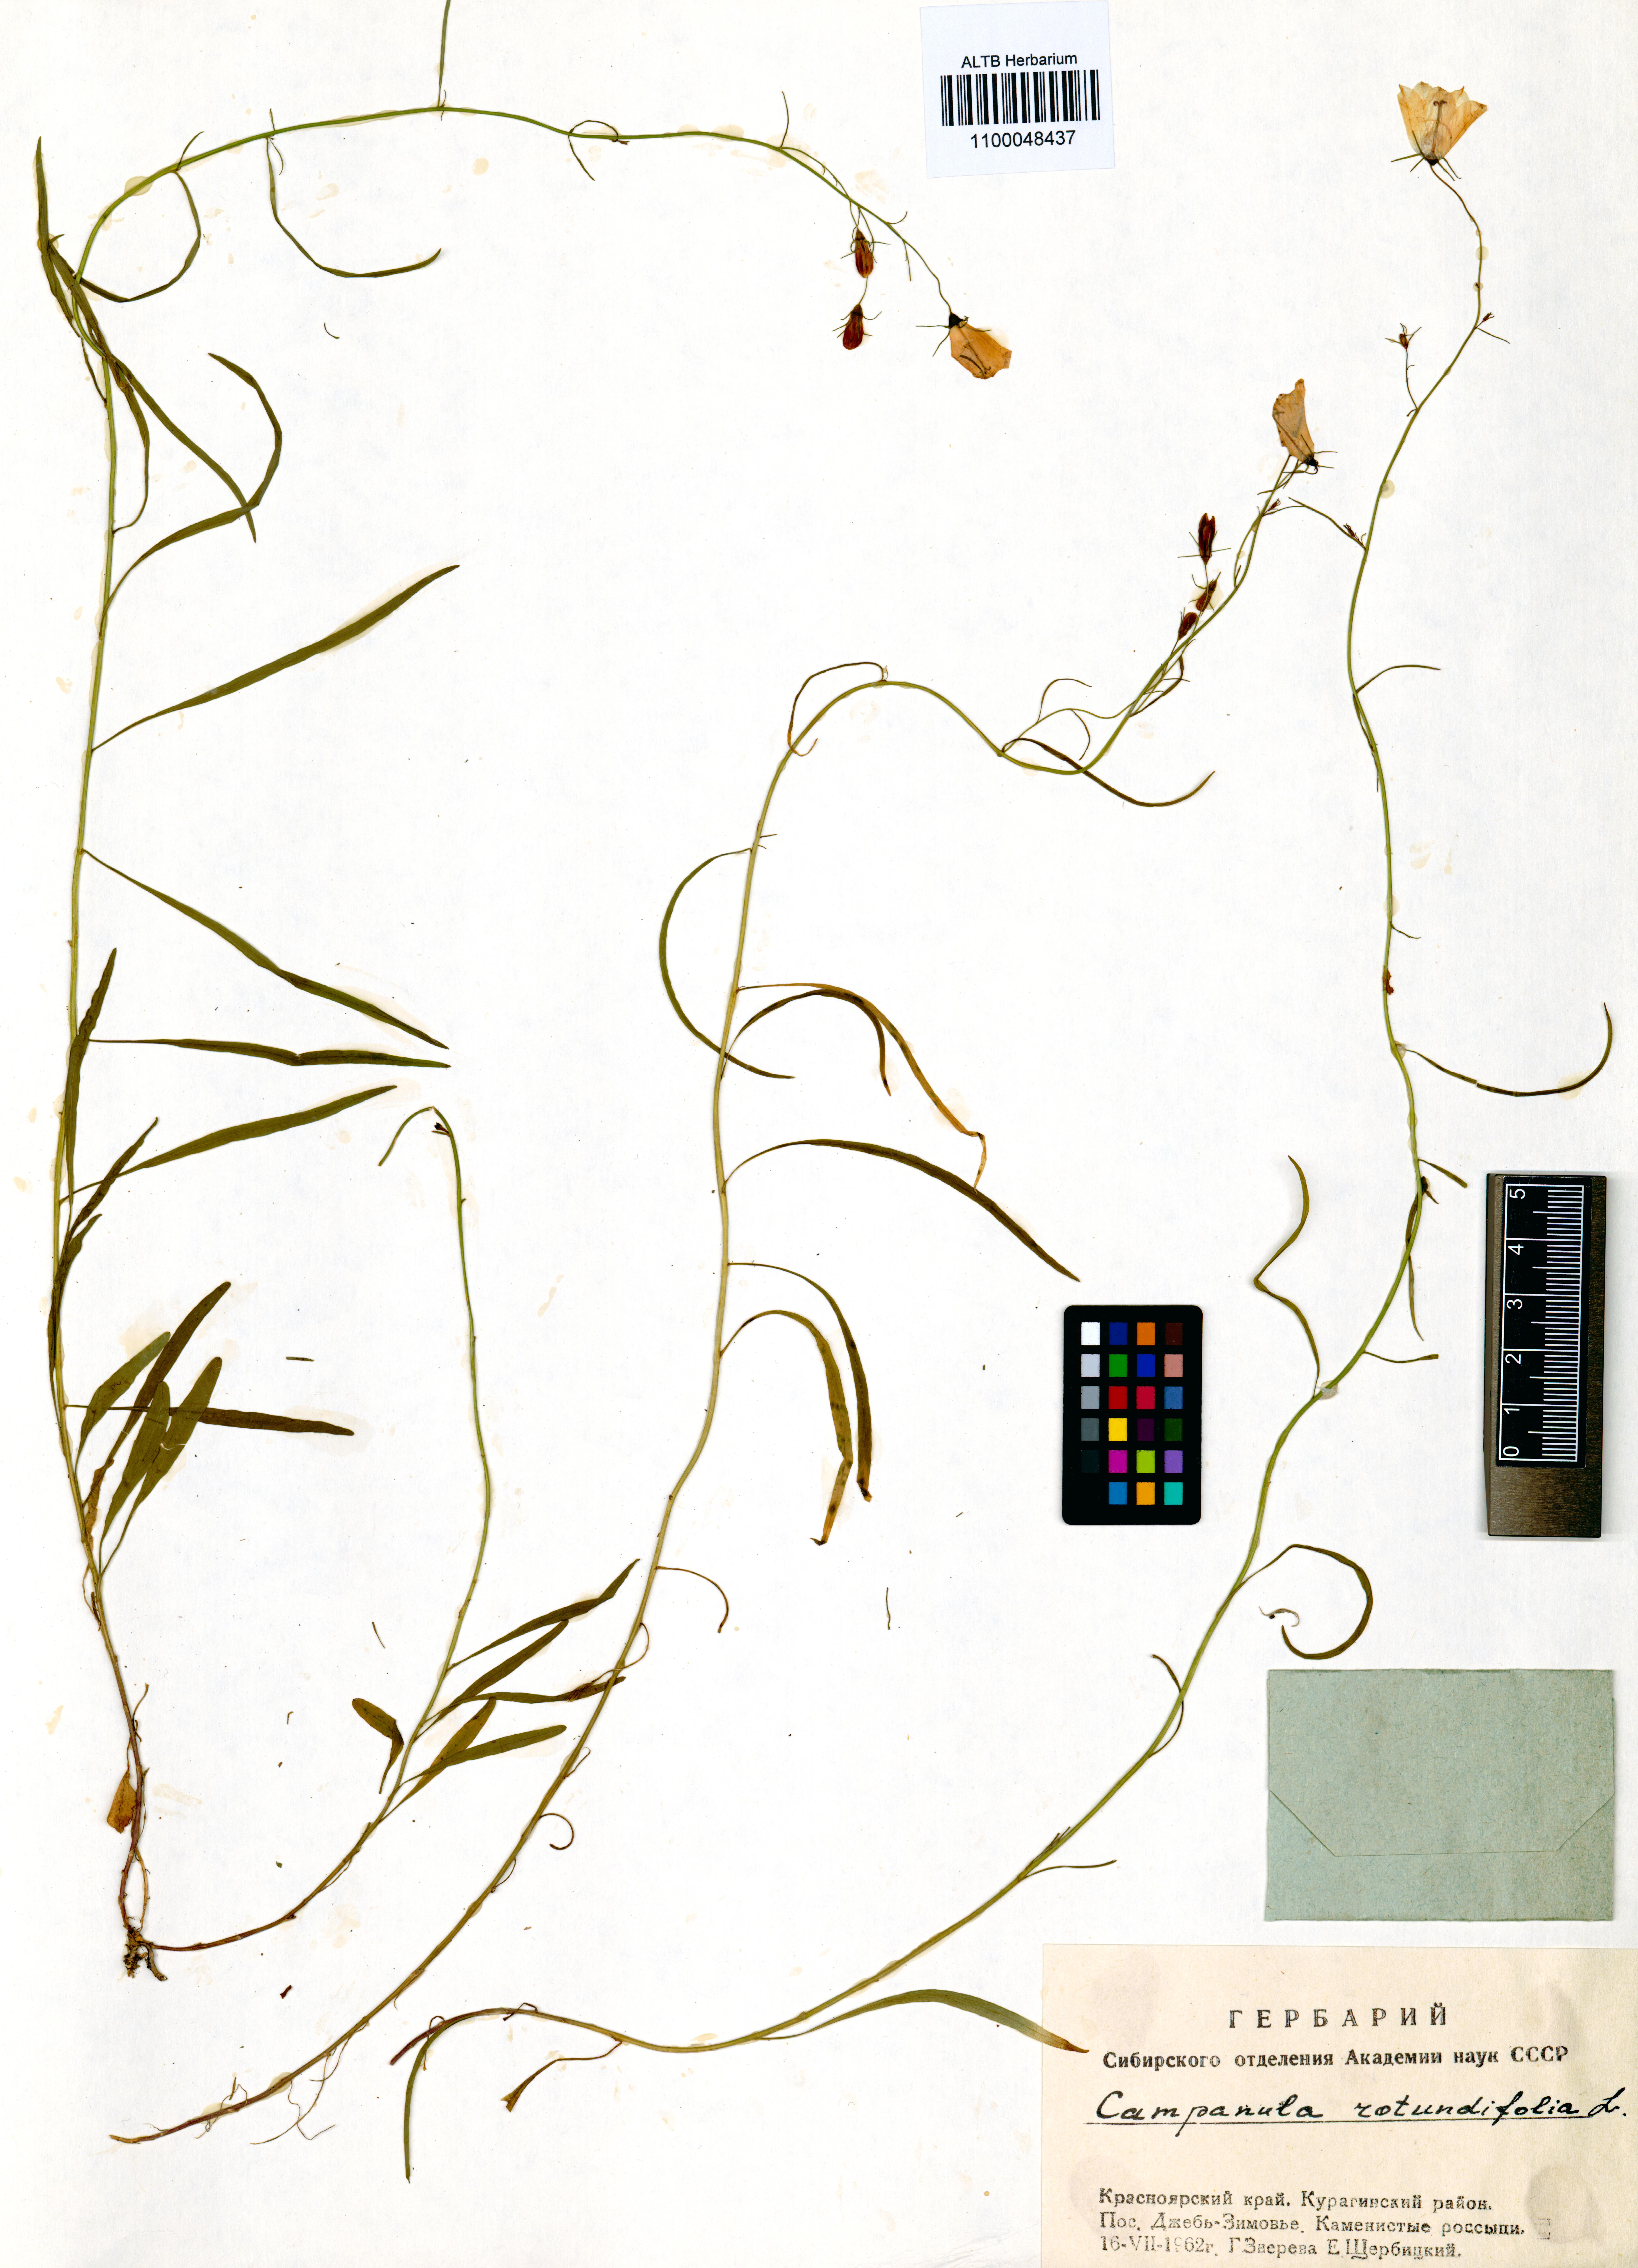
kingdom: Plantae
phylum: Tracheophyta
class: Magnoliopsida
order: Asterales
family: Campanulaceae
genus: Campanula
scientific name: Campanula rotundifolia
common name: Harebell
